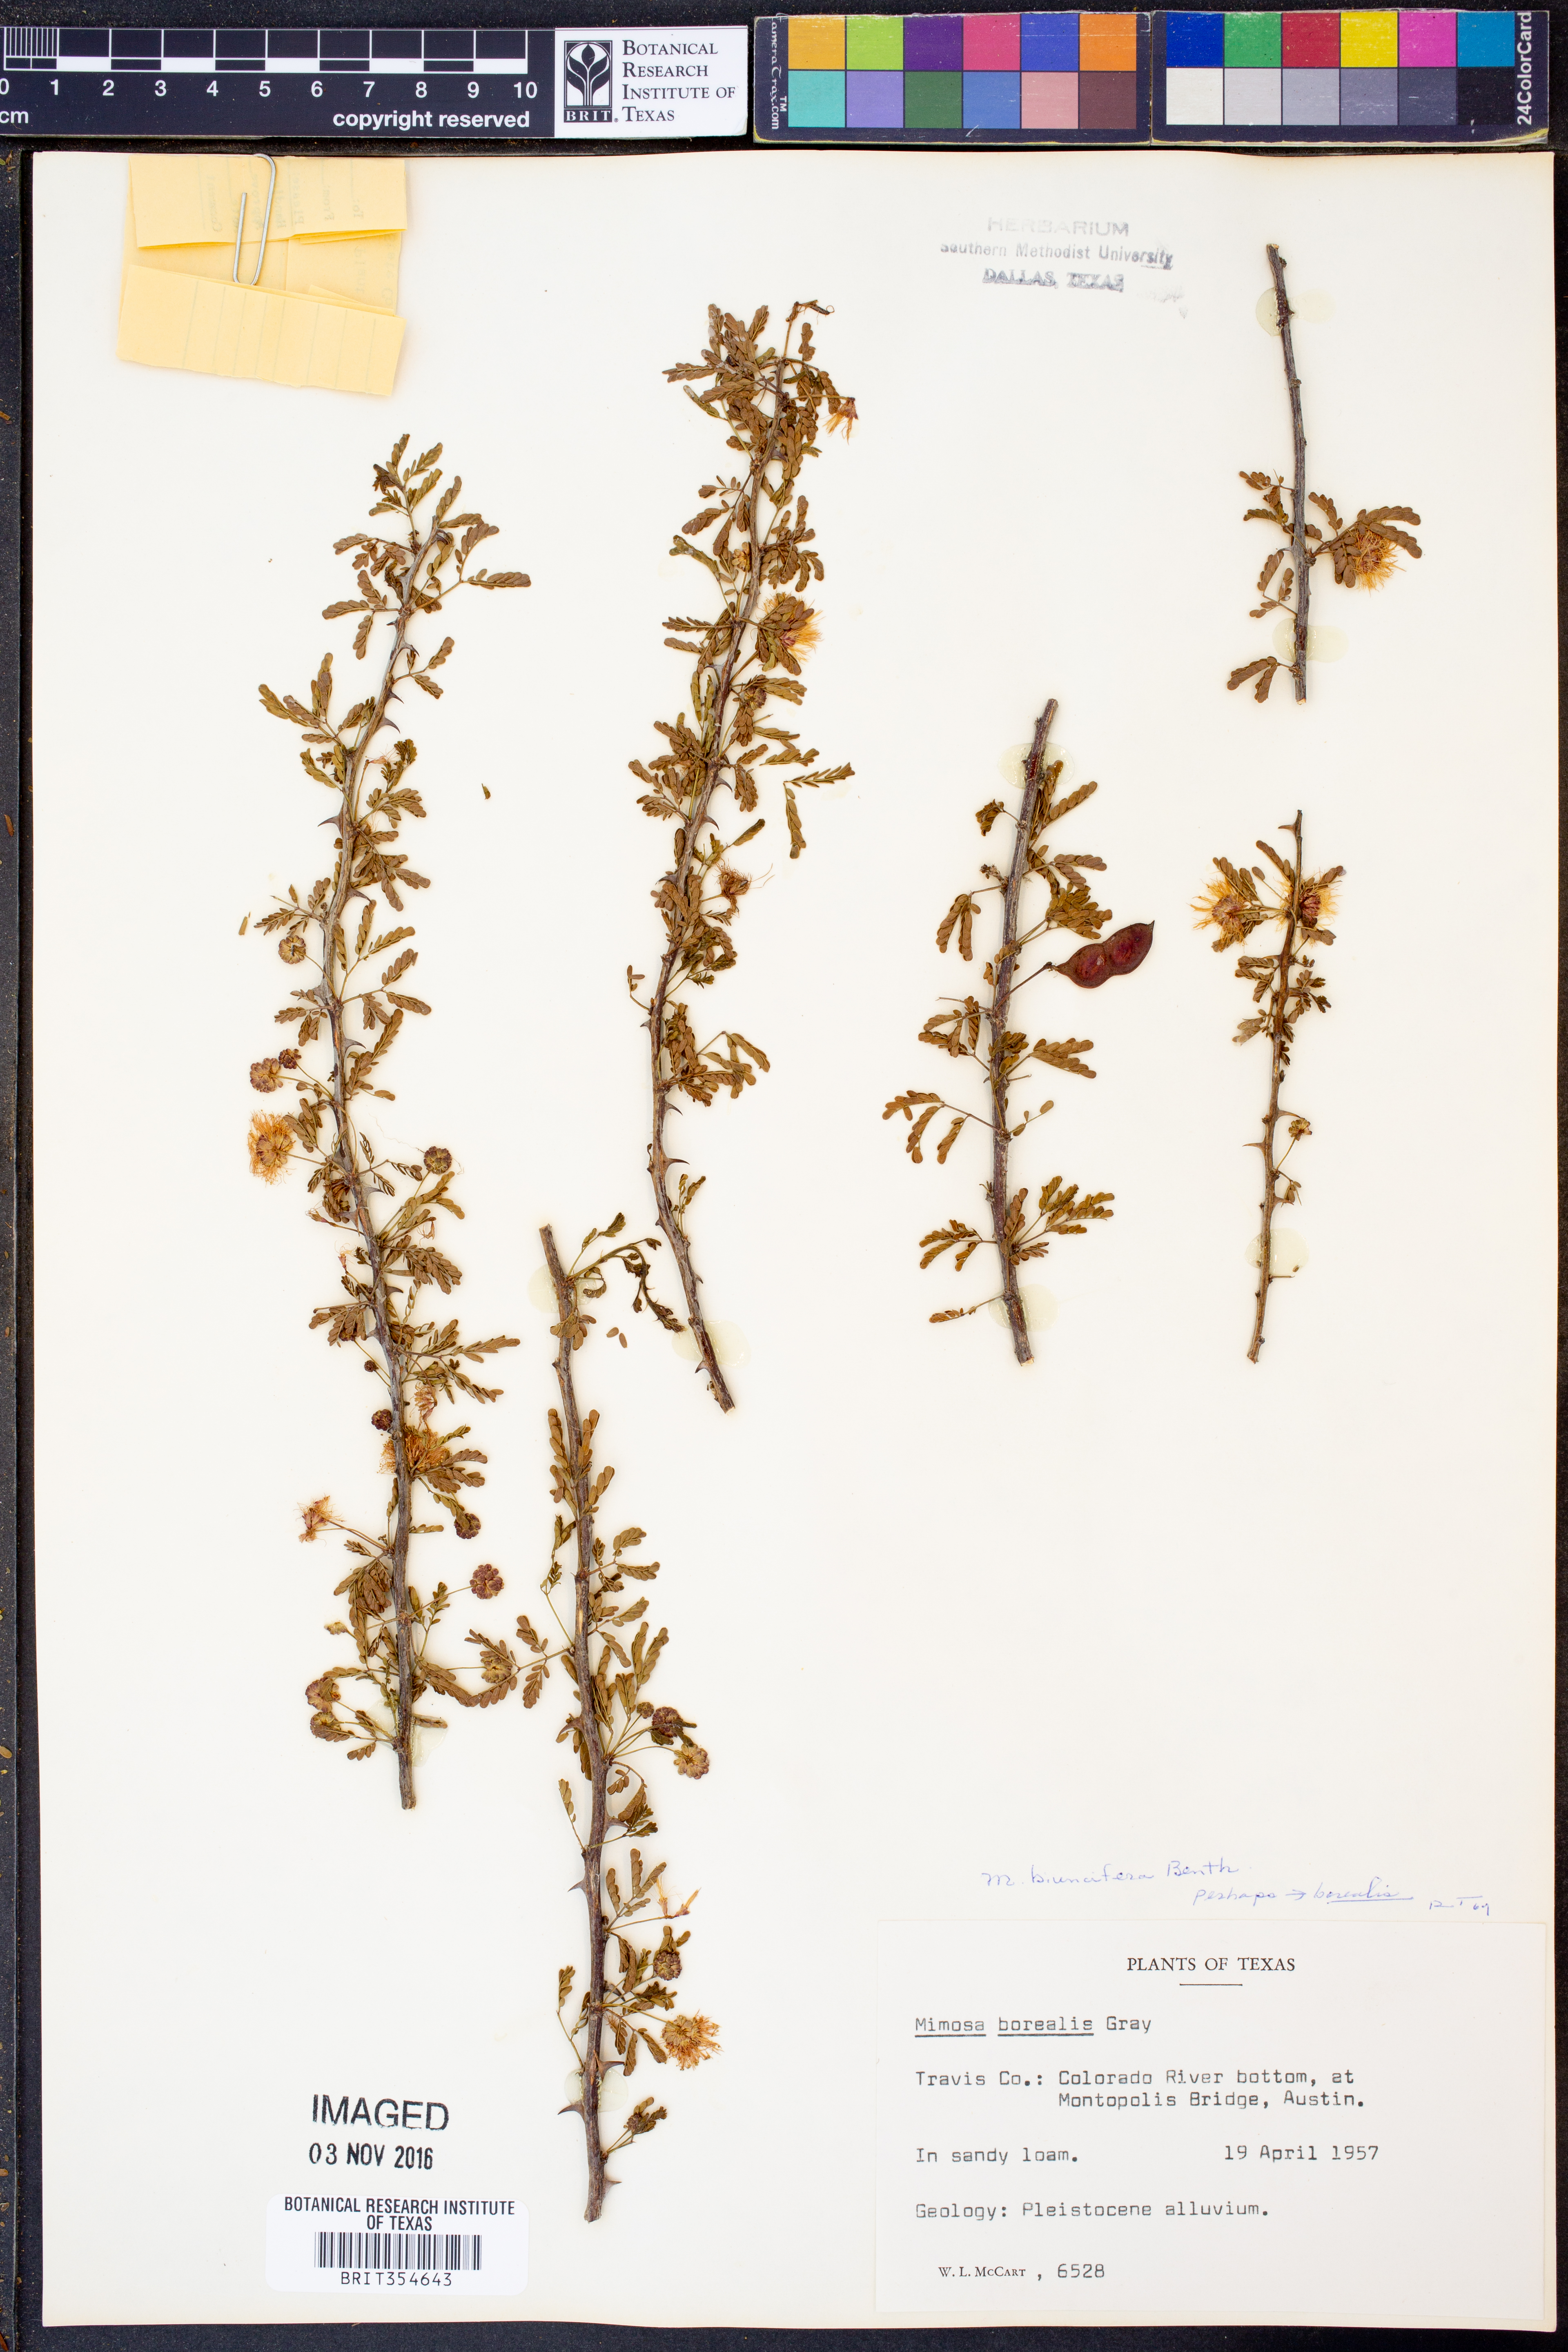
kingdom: Plantae
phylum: Tracheophyta
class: Magnoliopsida
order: Fabales
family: Fabaceae
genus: Mimosa
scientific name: Mimosa borealis
